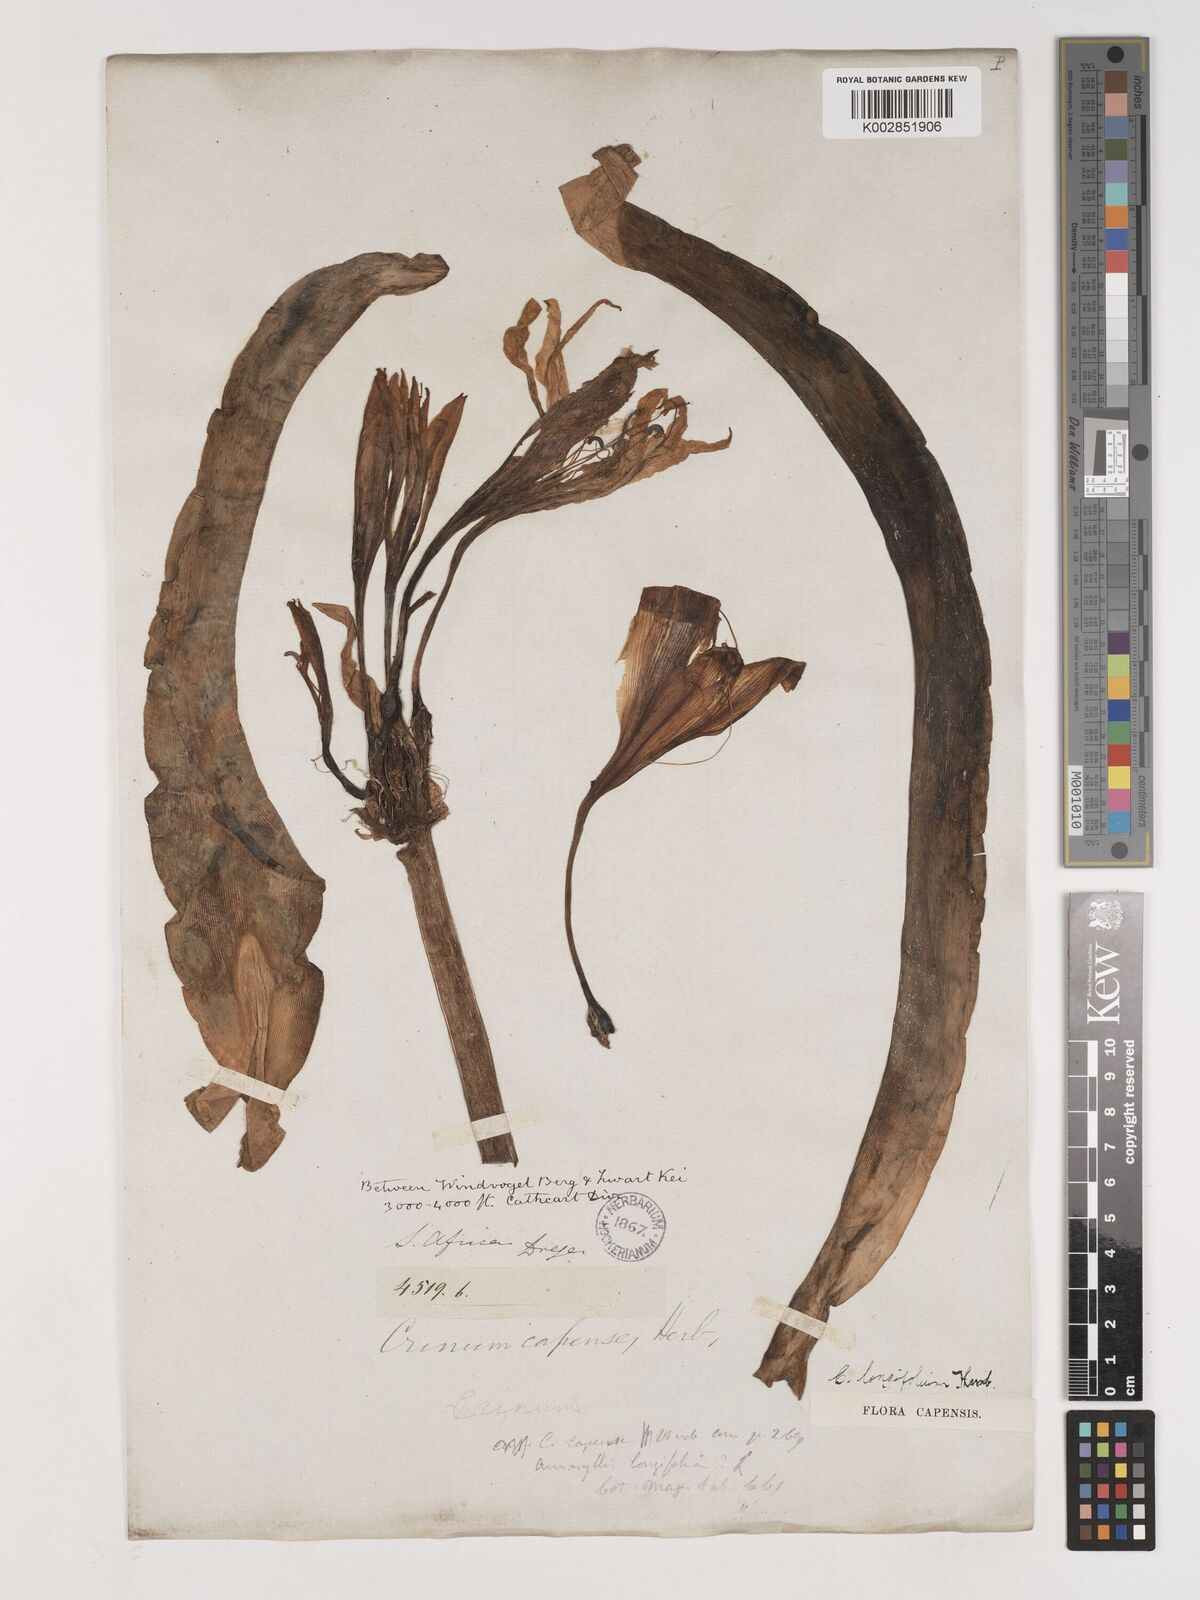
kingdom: Plantae
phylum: Tracheophyta
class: Liliopsida
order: Asparagales
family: Amaryllidaceae
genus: Crinum
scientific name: Crinum bulbispermum
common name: Hardy swamplily
